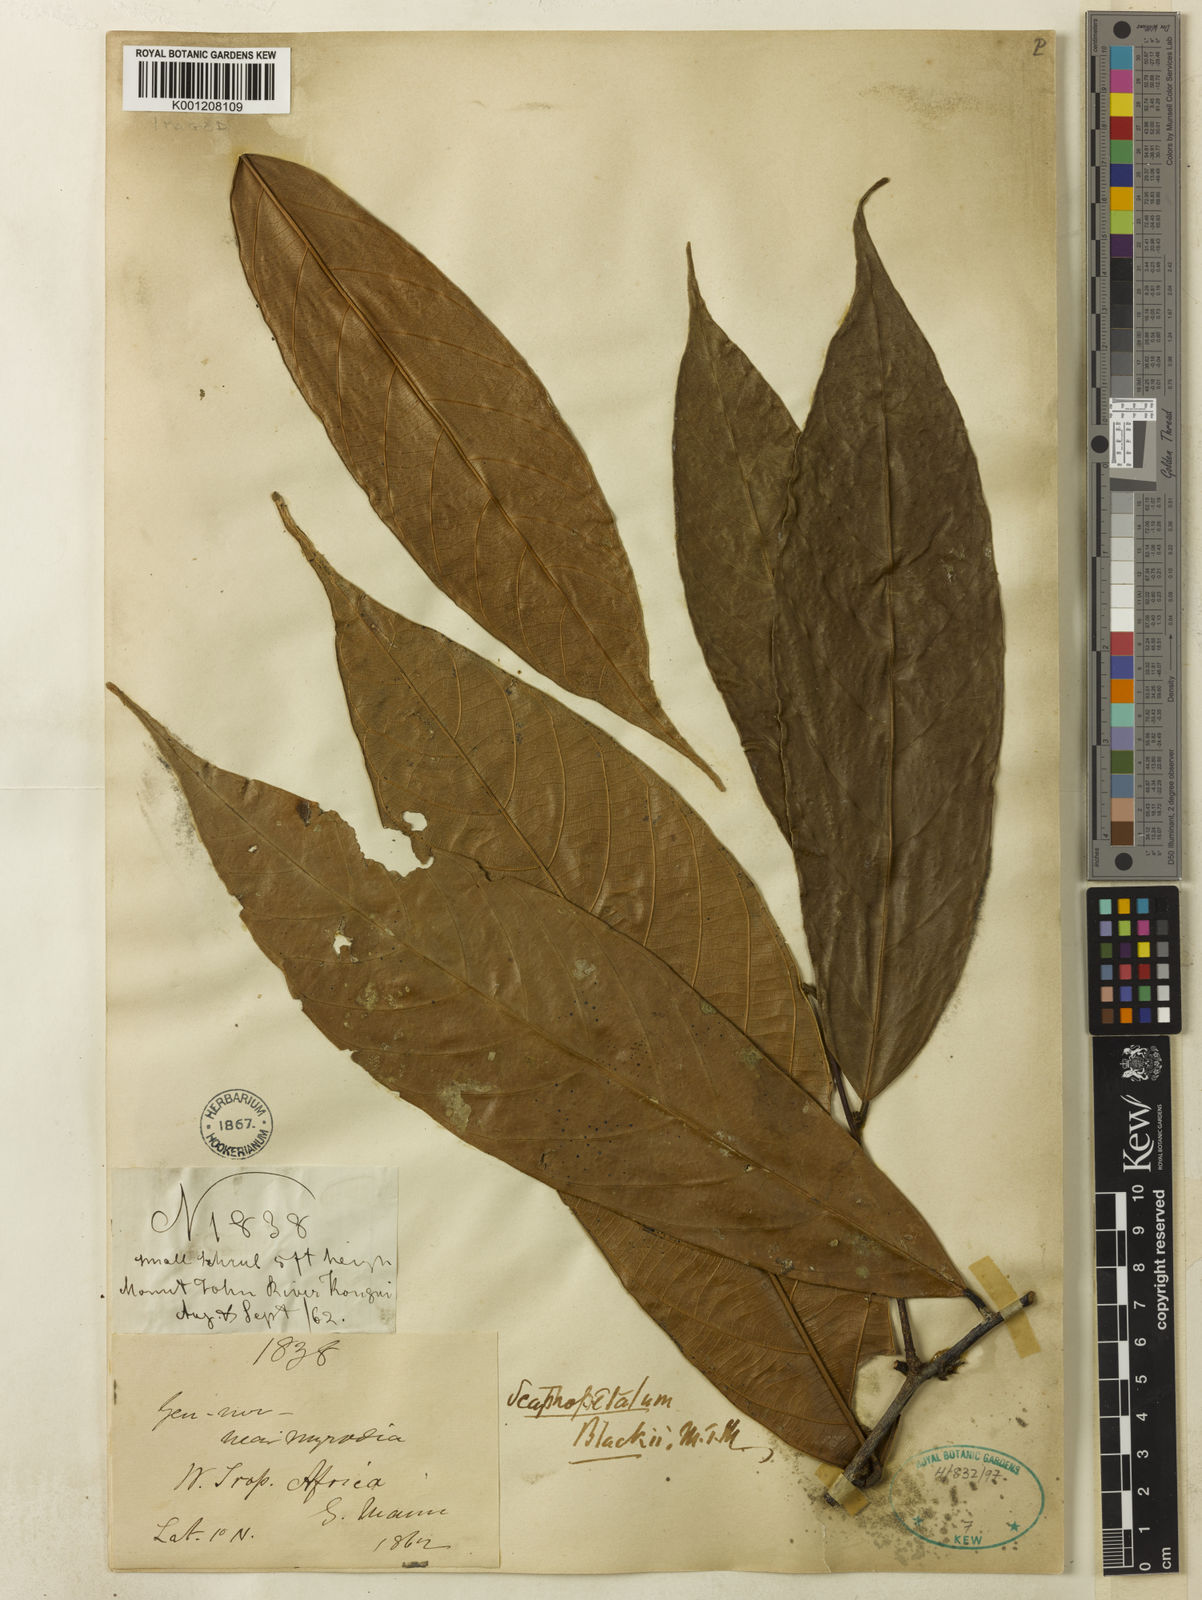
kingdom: Plantae
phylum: Tracheophyta
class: Magnoliopsida
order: Malvales
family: Malvaceae
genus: Scaphopetalum
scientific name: Scaphopetalum blackii
